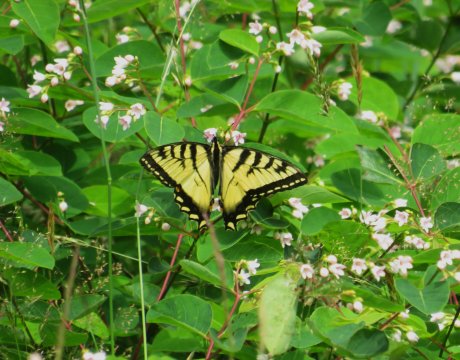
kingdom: Animalia
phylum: Arthropoda
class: Insecta
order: Lepidoptera
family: Papilionidae
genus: Pterourus
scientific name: Pterourus glaucus
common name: Eastern Tiger Swallowtail
